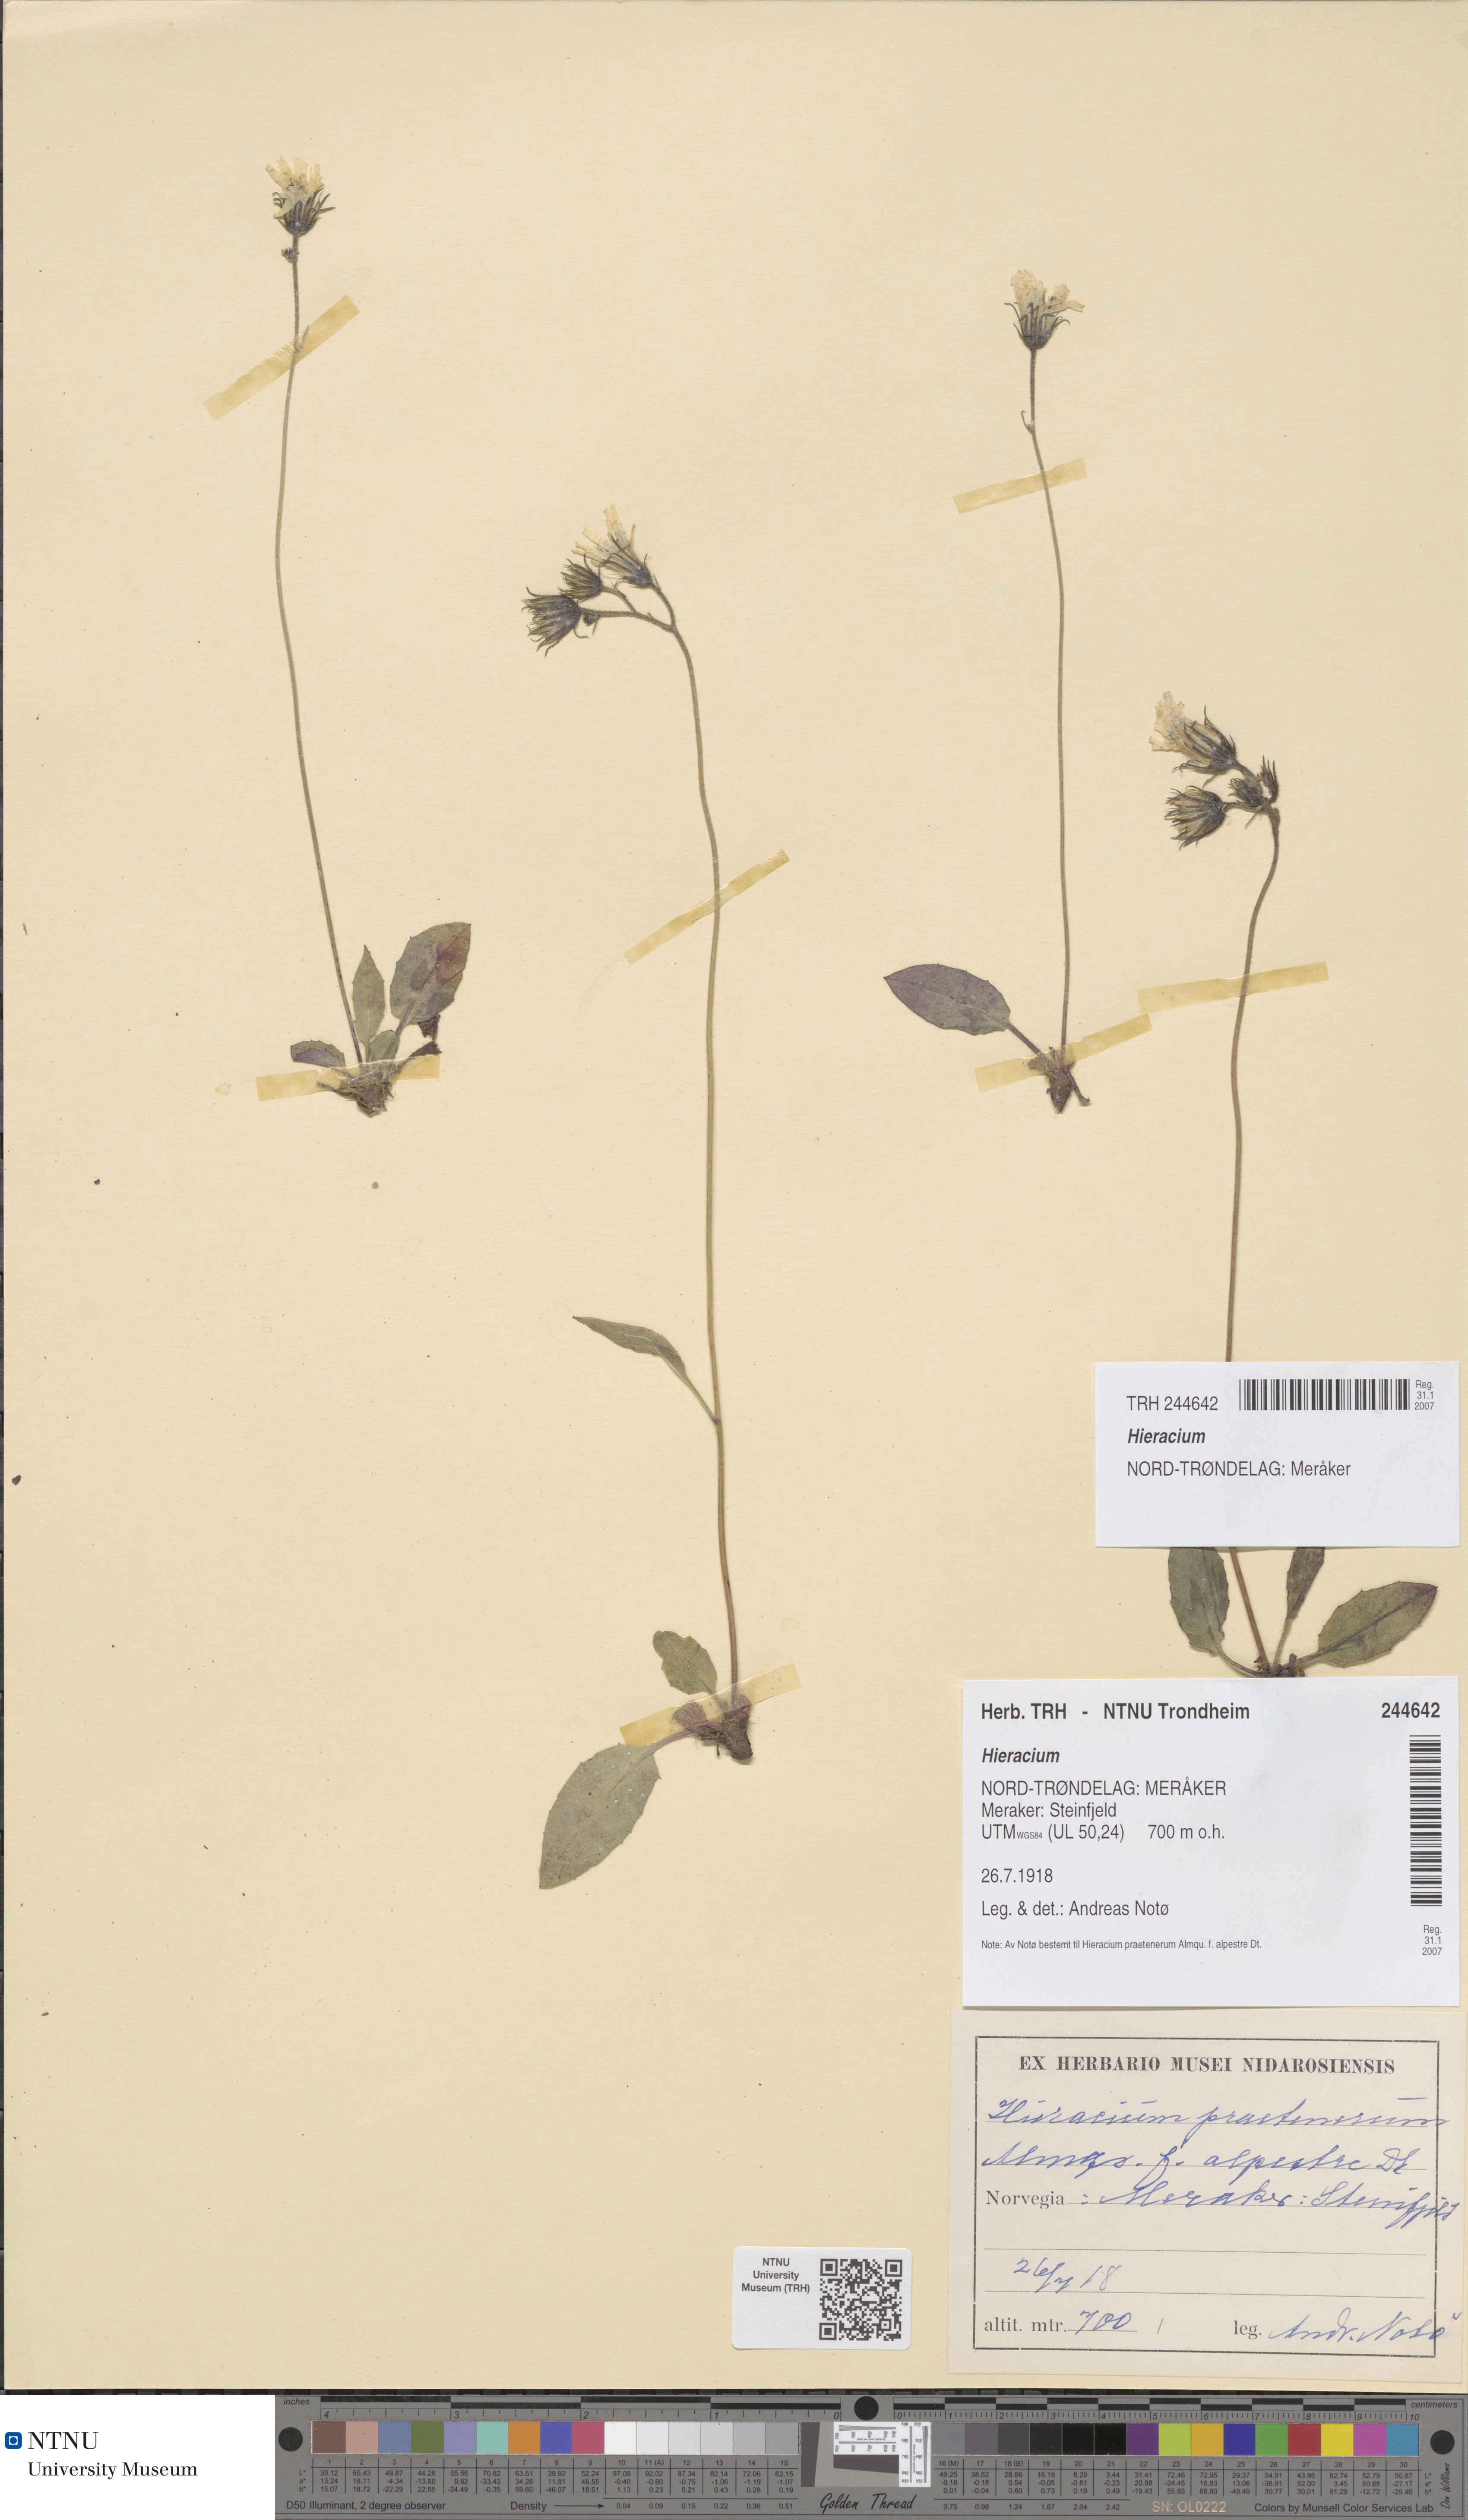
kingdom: Plantae
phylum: Tracheophyta
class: Magnoliopsida
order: Asterales
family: Asteraceae
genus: Hieracium
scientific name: Hieracium
